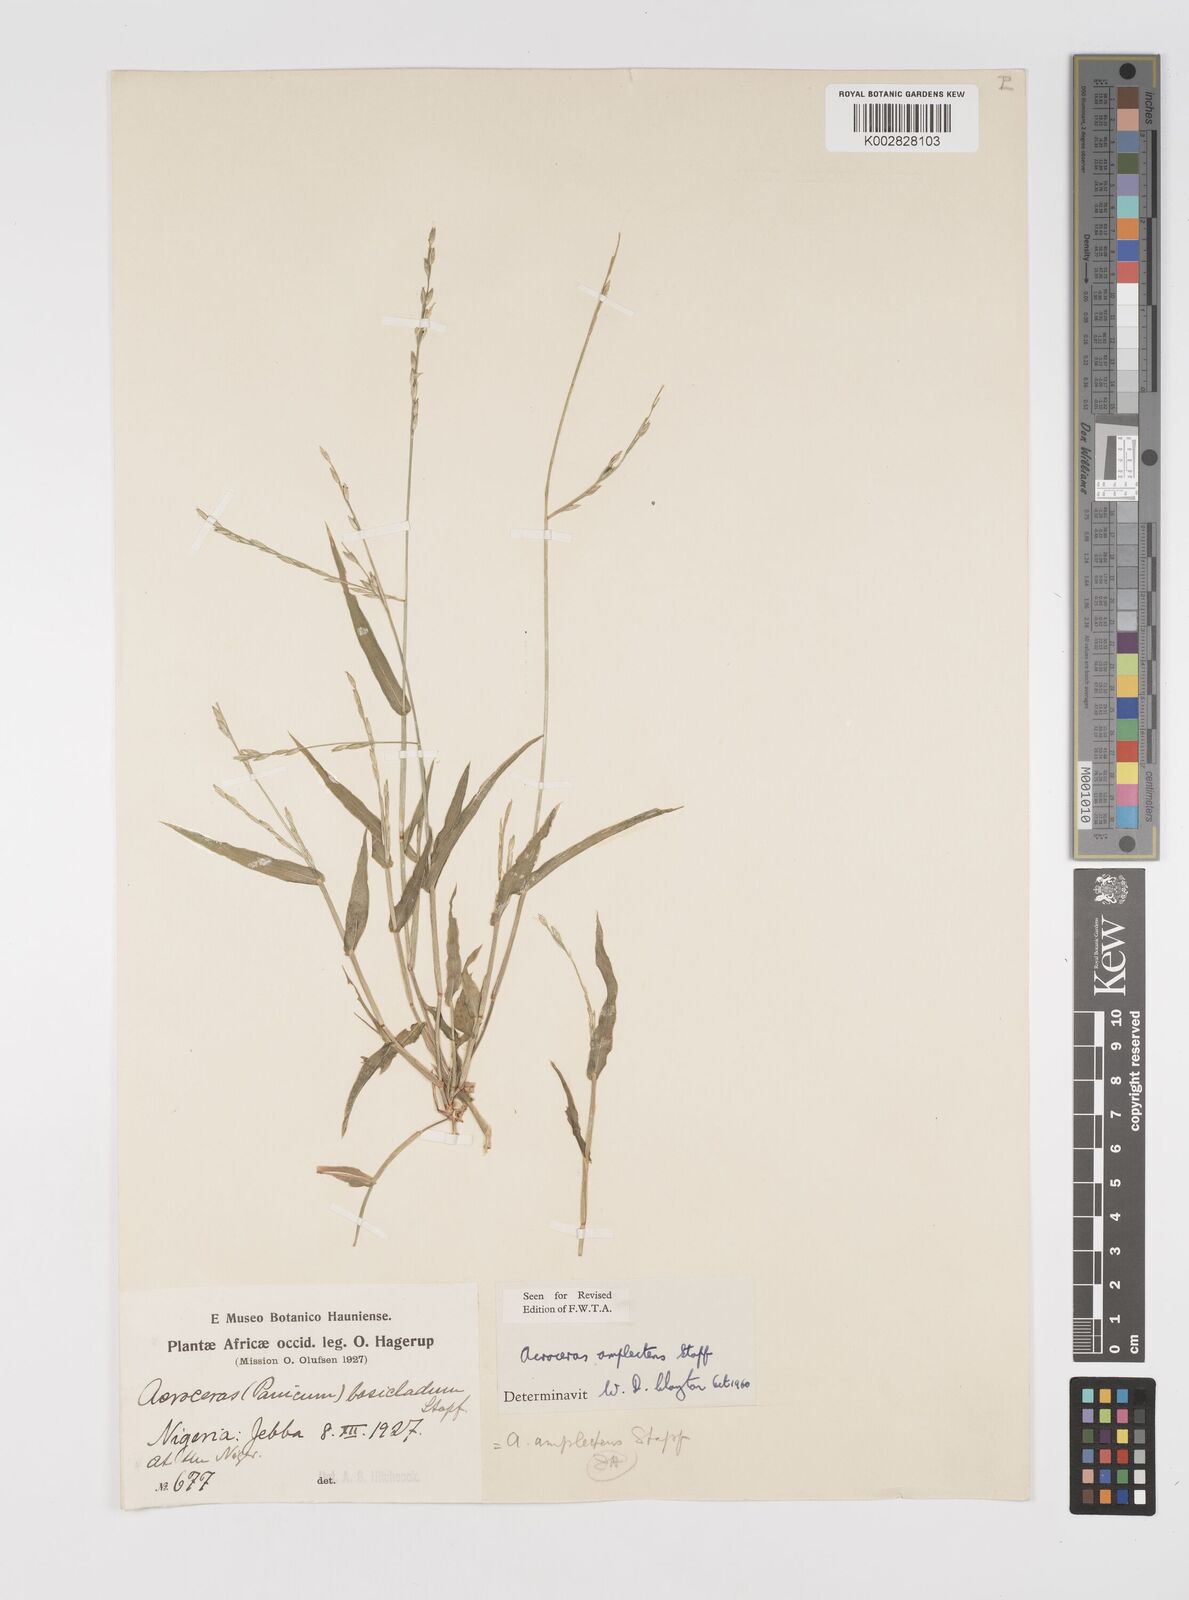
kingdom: Plantae
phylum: Tracheophyta
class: Liliopsida
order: Poales
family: Poaceae
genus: Acroceras
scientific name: Acroceras amplectens
